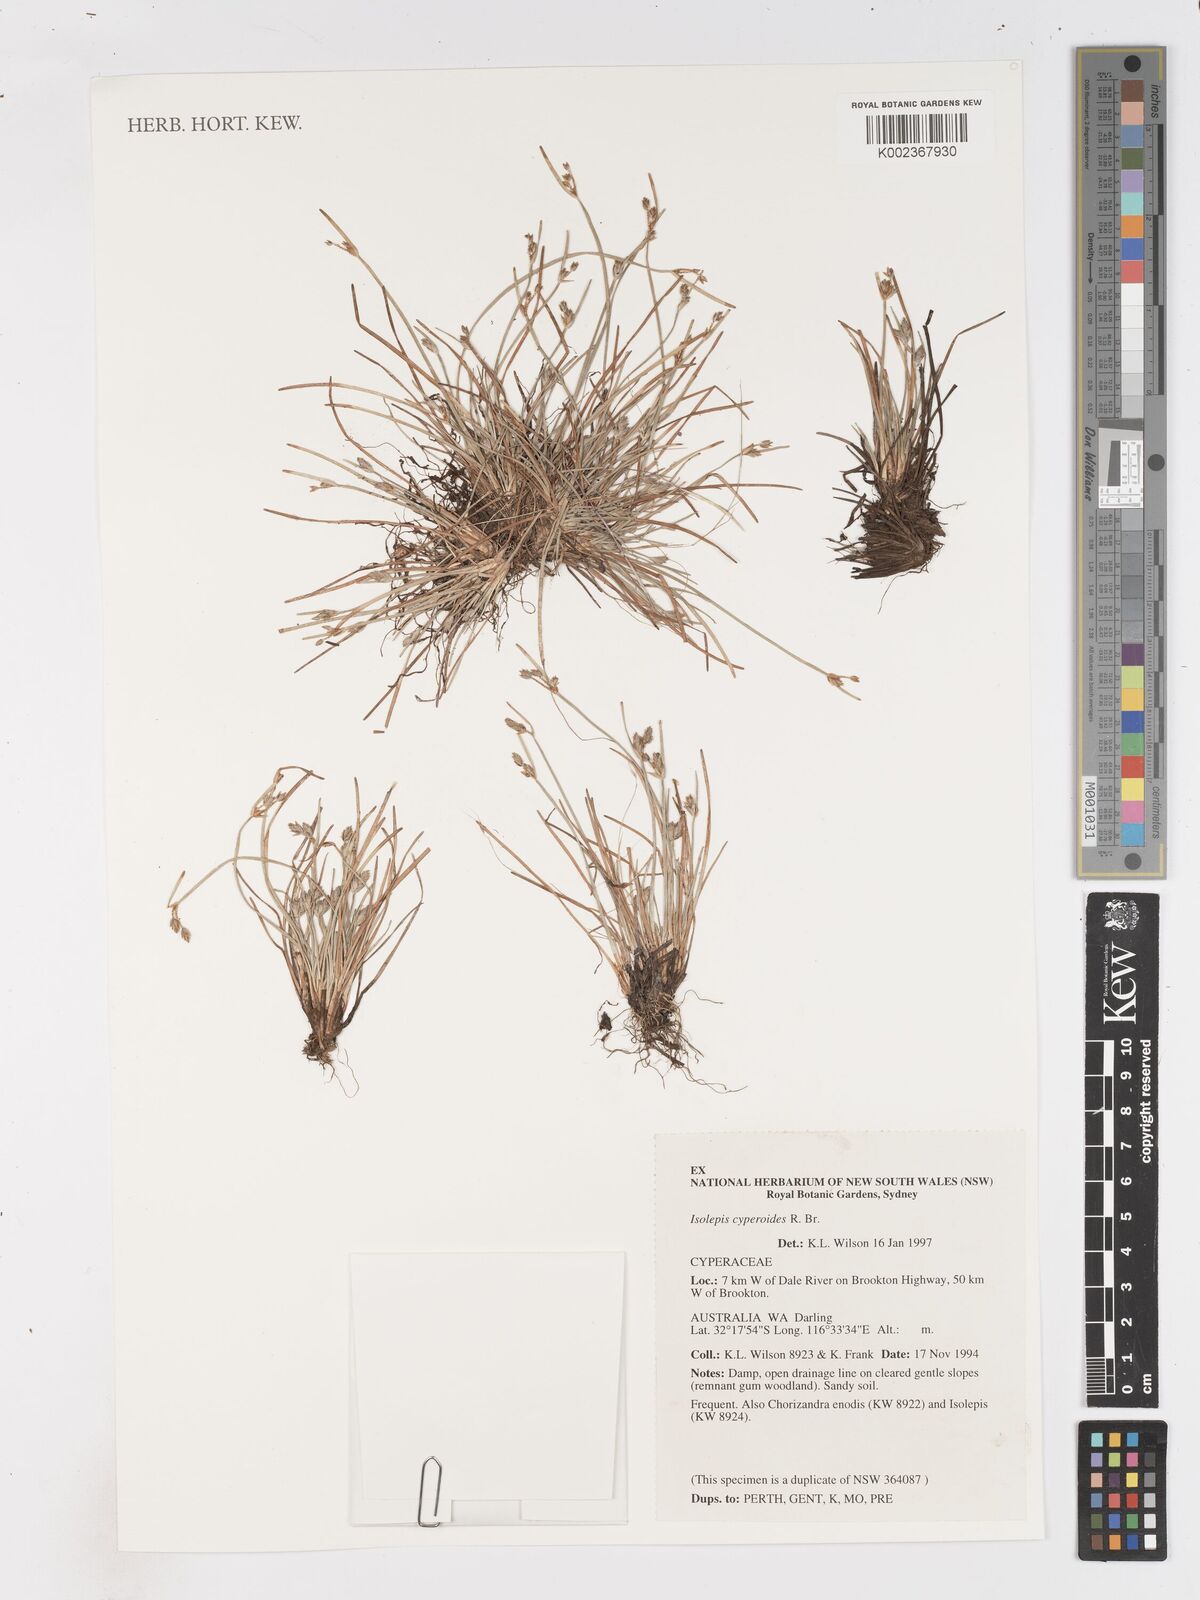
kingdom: Plantae
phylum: Tracheophyta
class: Liliopsida
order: Poales
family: Cyperaceae
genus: Isolepis
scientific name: Isolepis cyperoides
